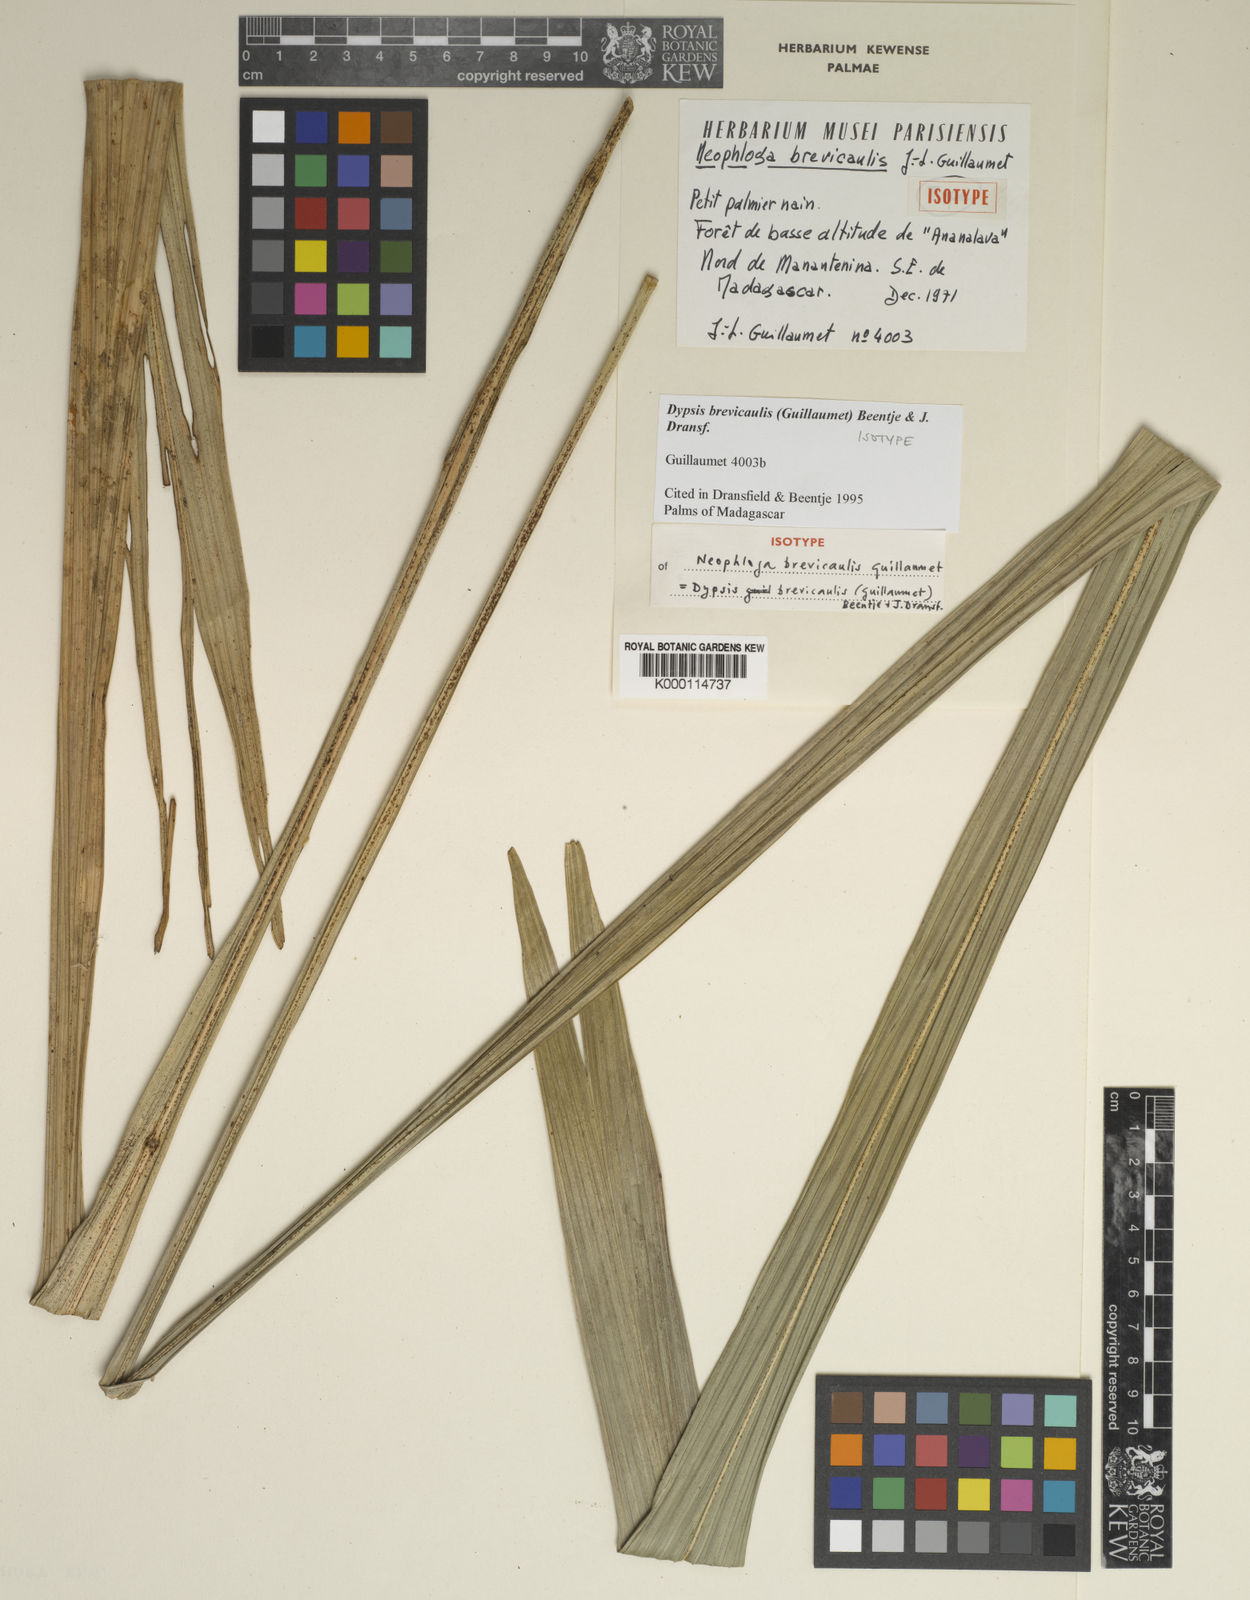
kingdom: Plantae
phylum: Tracheophyta
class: Liliopsida
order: Arecales
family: Arecaceae
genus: Dypsis
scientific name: Dypsis brevicaulis
